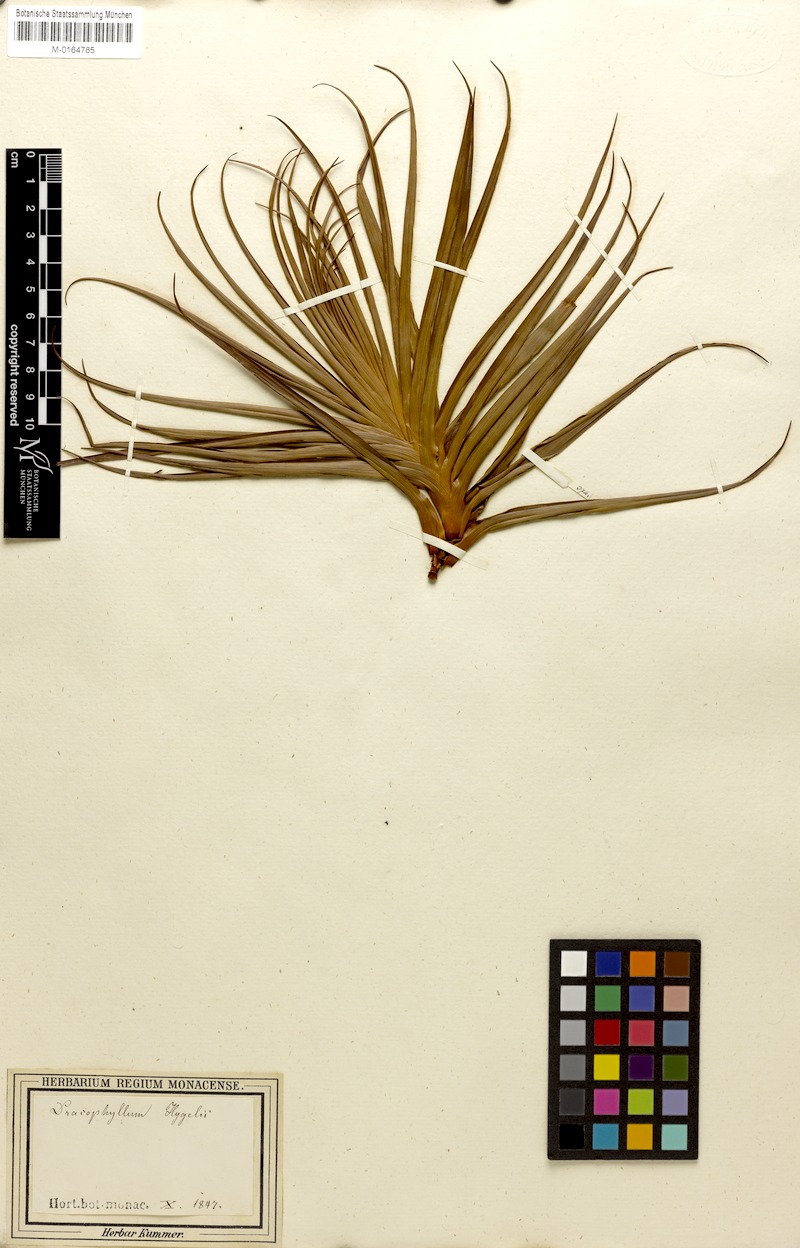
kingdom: Plantae
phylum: Tracheophyta
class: Magnoliopsida
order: Ericales
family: Ericaceae
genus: Dracophyllum
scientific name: Dracophyllum
